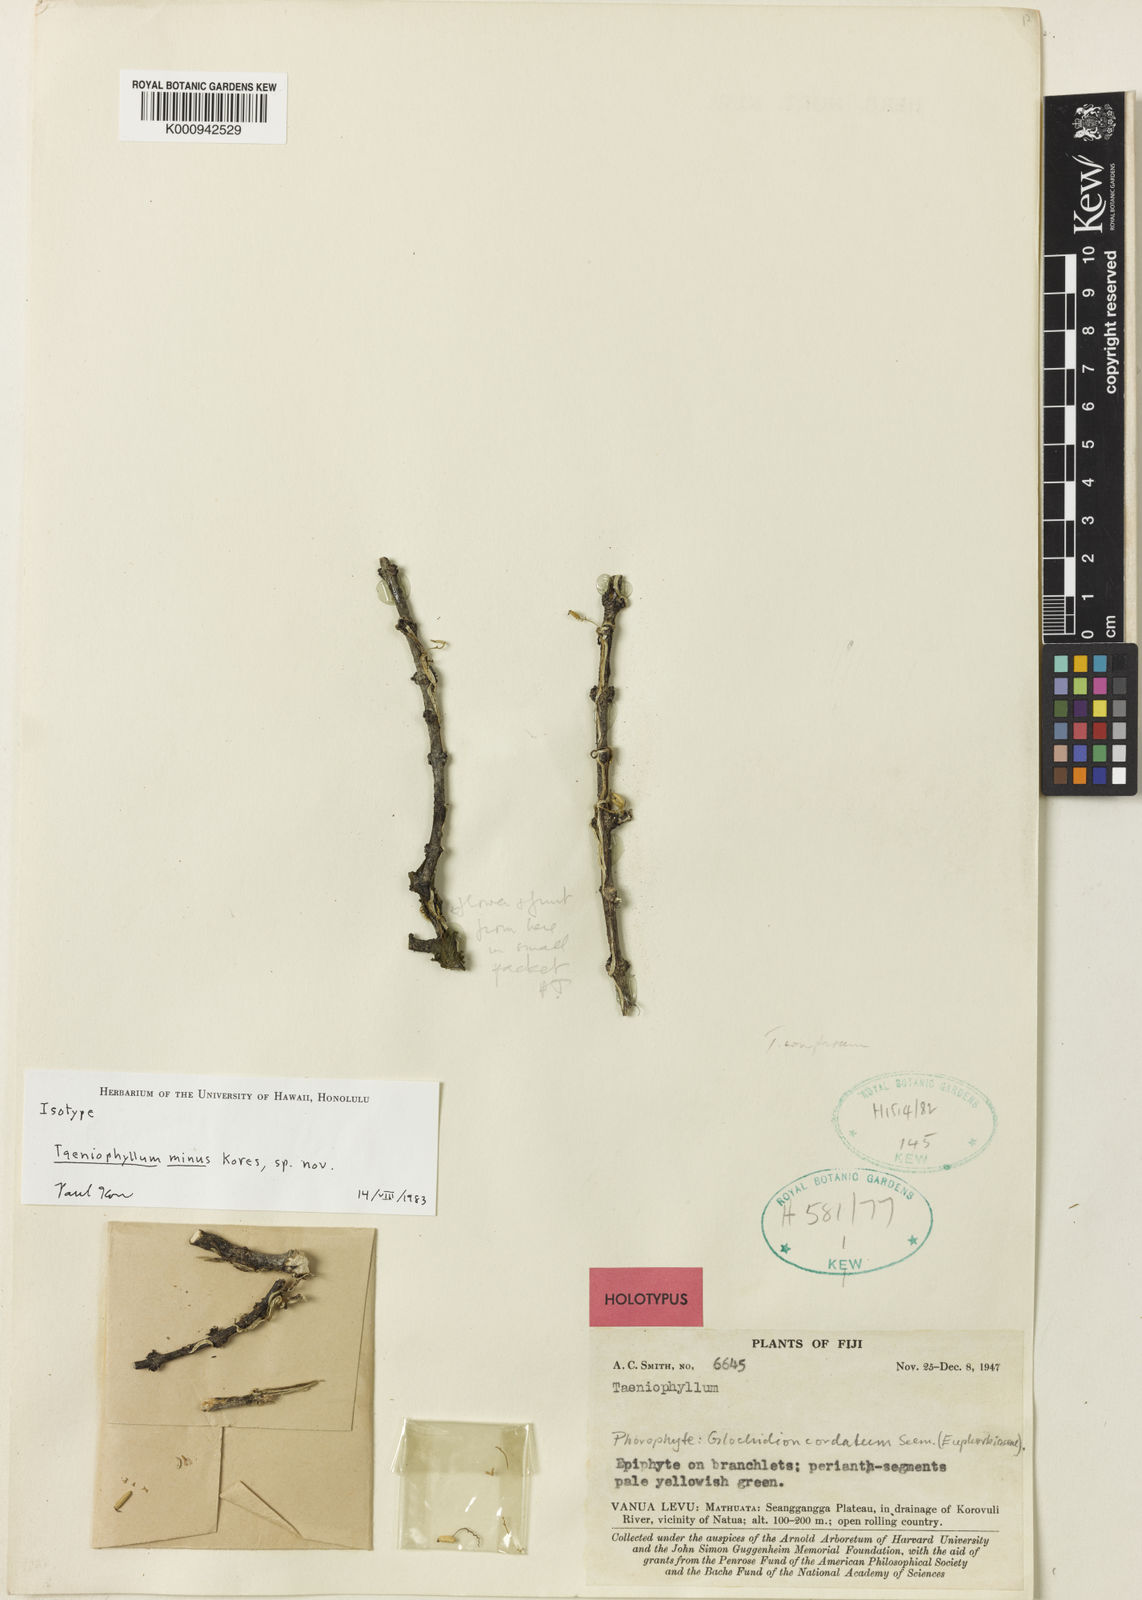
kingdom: Plantae
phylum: Tracheophyta
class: Liliopsida
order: Asparagales
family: Orchidaceae
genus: Taeniophyllum
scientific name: Taeniophyllum minimum
